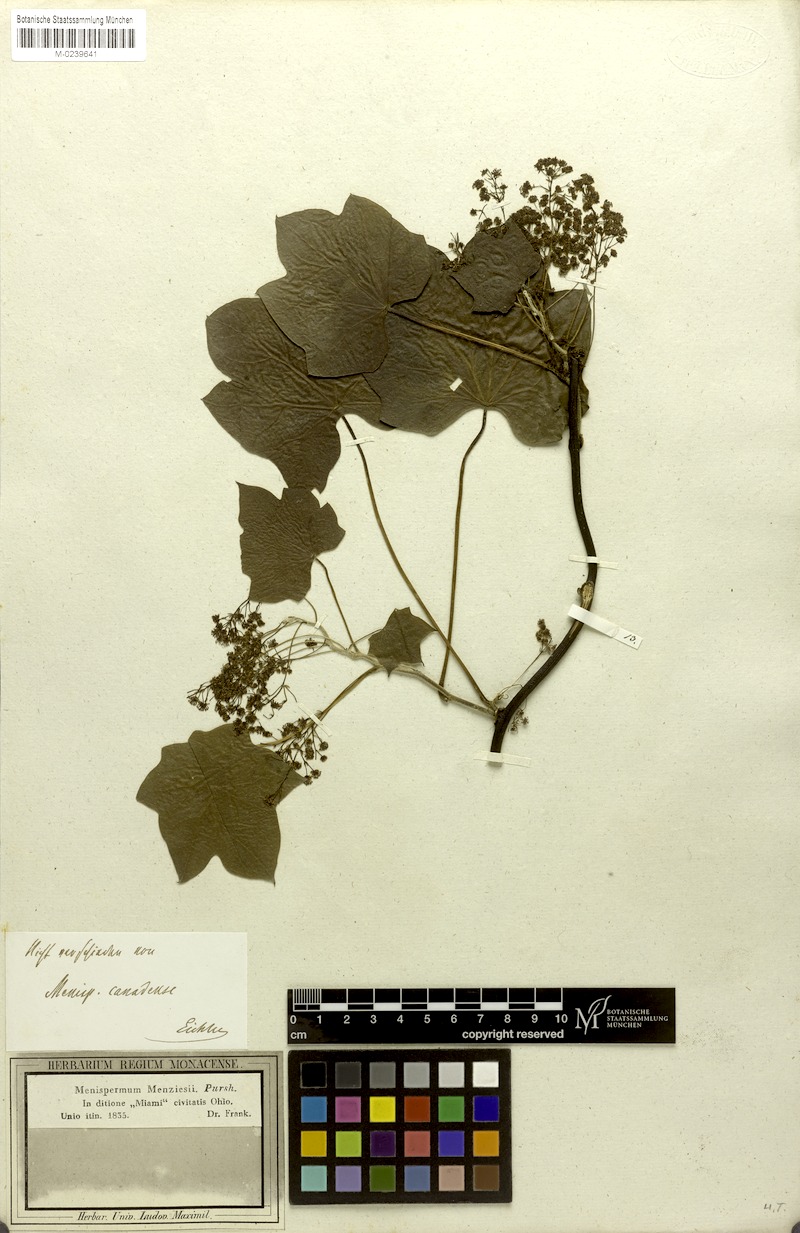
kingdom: Plantae
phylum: Tracheophyta
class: Magnoliopsida
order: Ranunculales
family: Menispermaceae
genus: Menispermum
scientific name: Menispermum canadense
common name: Moonseed
